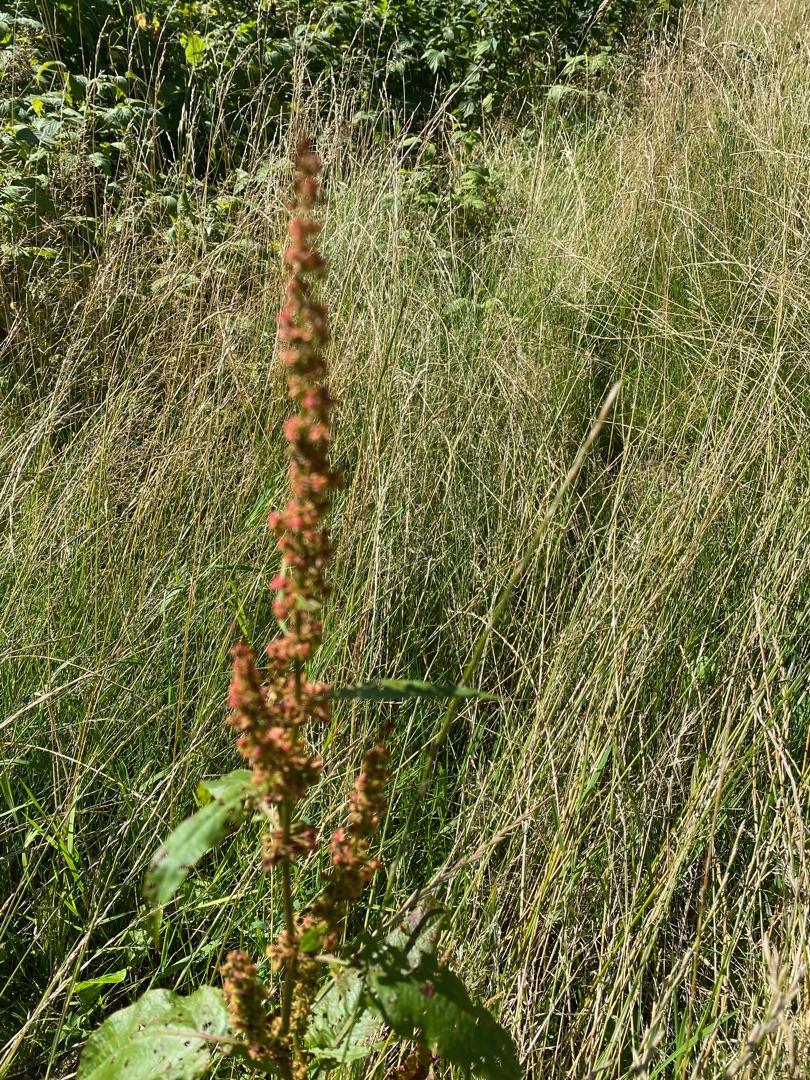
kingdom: Plantae
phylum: Tracheophyta
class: Magnoliopsida
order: Caryophyllales
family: Polygonaceae
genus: Rumex
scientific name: Rumex
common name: Skræppeslægten
